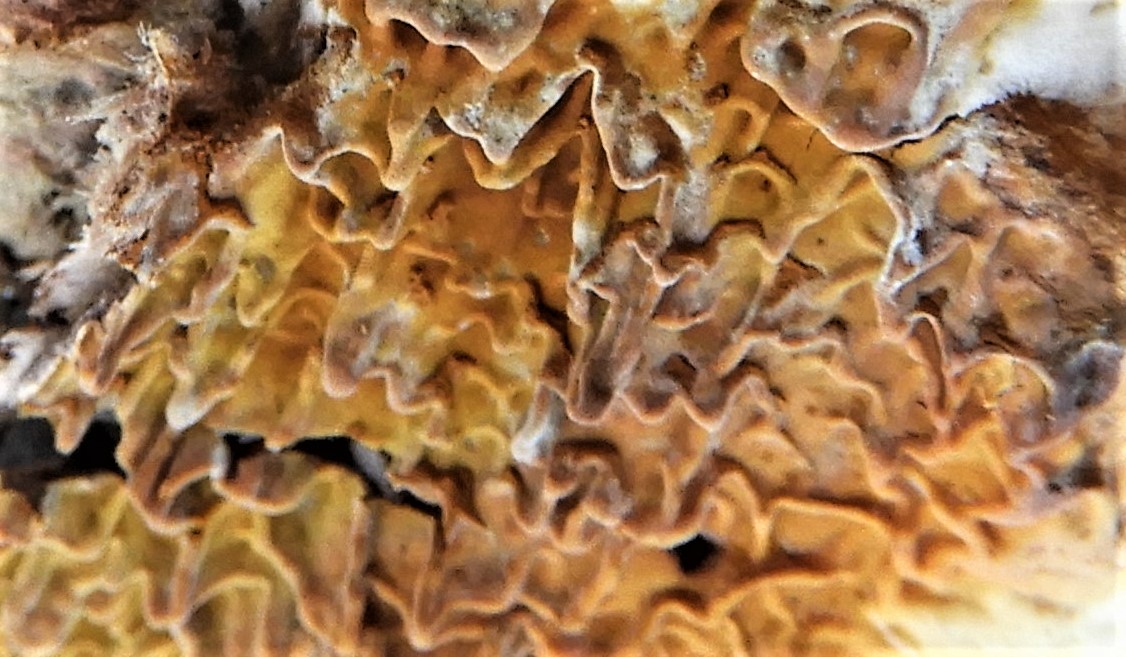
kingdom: Fungi
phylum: Basidiomycota
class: Agaricomycetes
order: Boletales
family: Serpulaceae
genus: Serpula
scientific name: Serpula himantioides
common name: tyndkødet hussvamp
